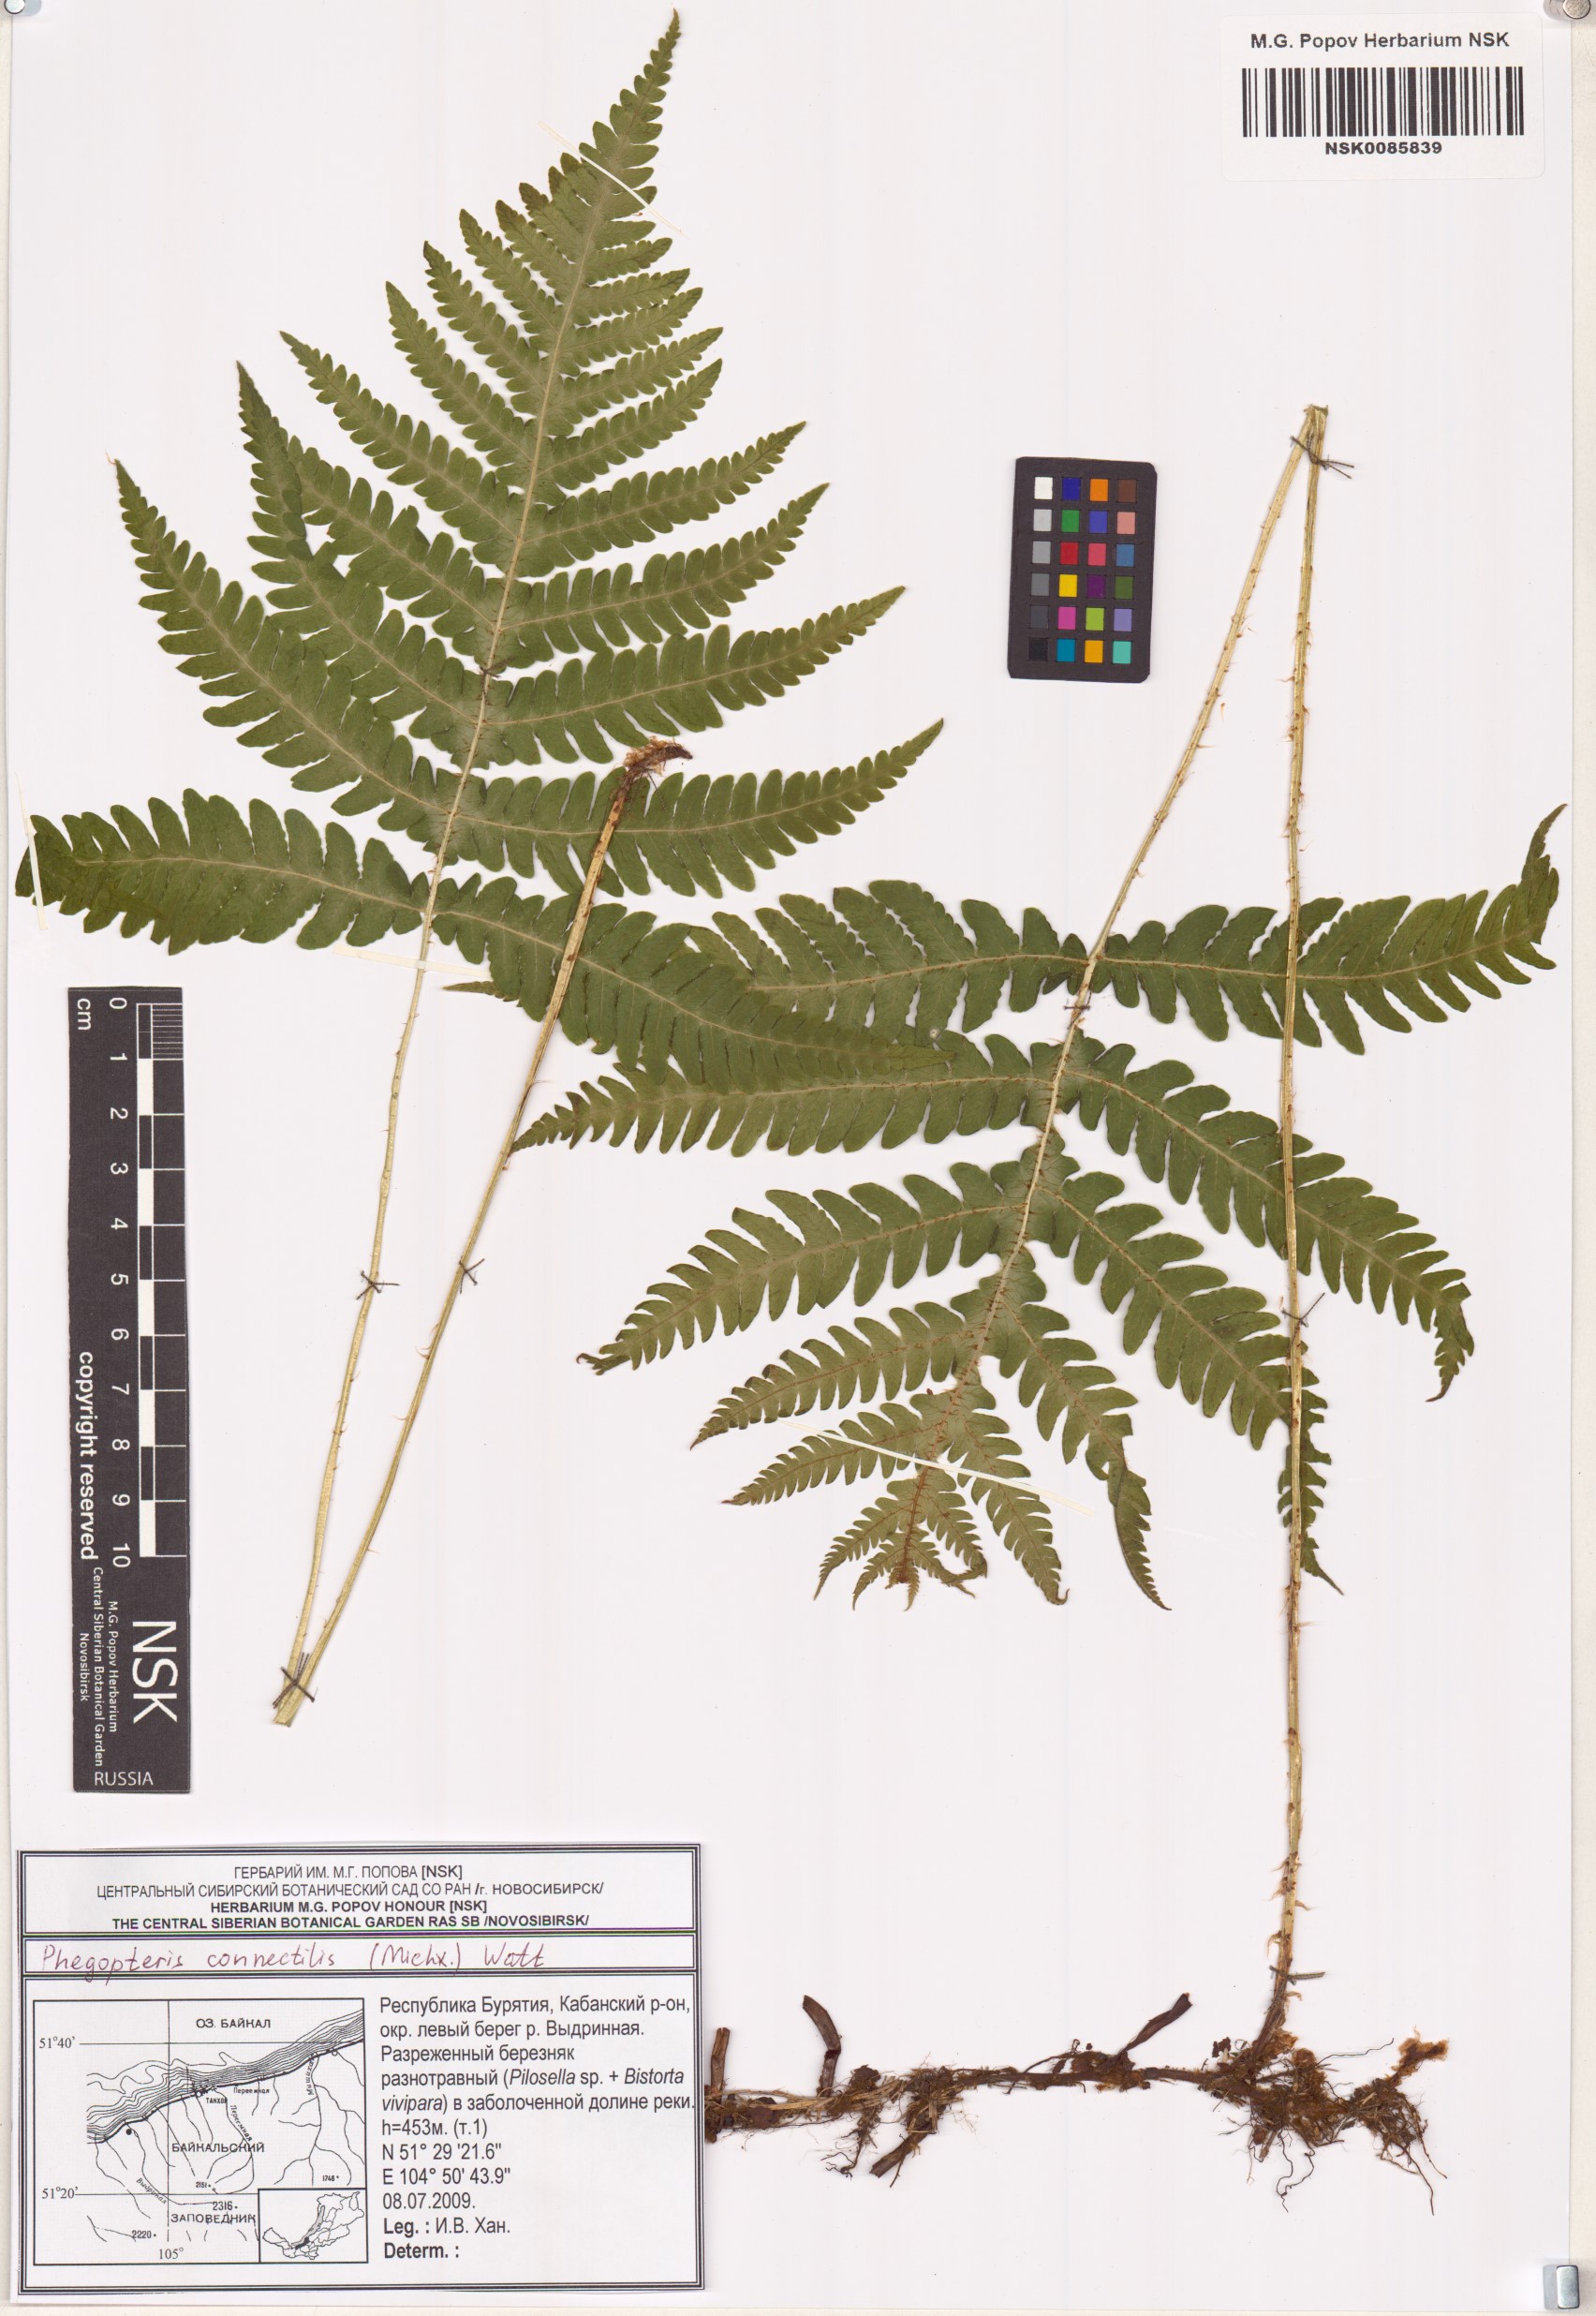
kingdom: Plantae
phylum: Tracheophyta
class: Polypodiopsida
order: Polypodiales
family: Thelypteridaceae
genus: Phegopteris
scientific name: Phegopteris connectilis
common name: Beech fern
